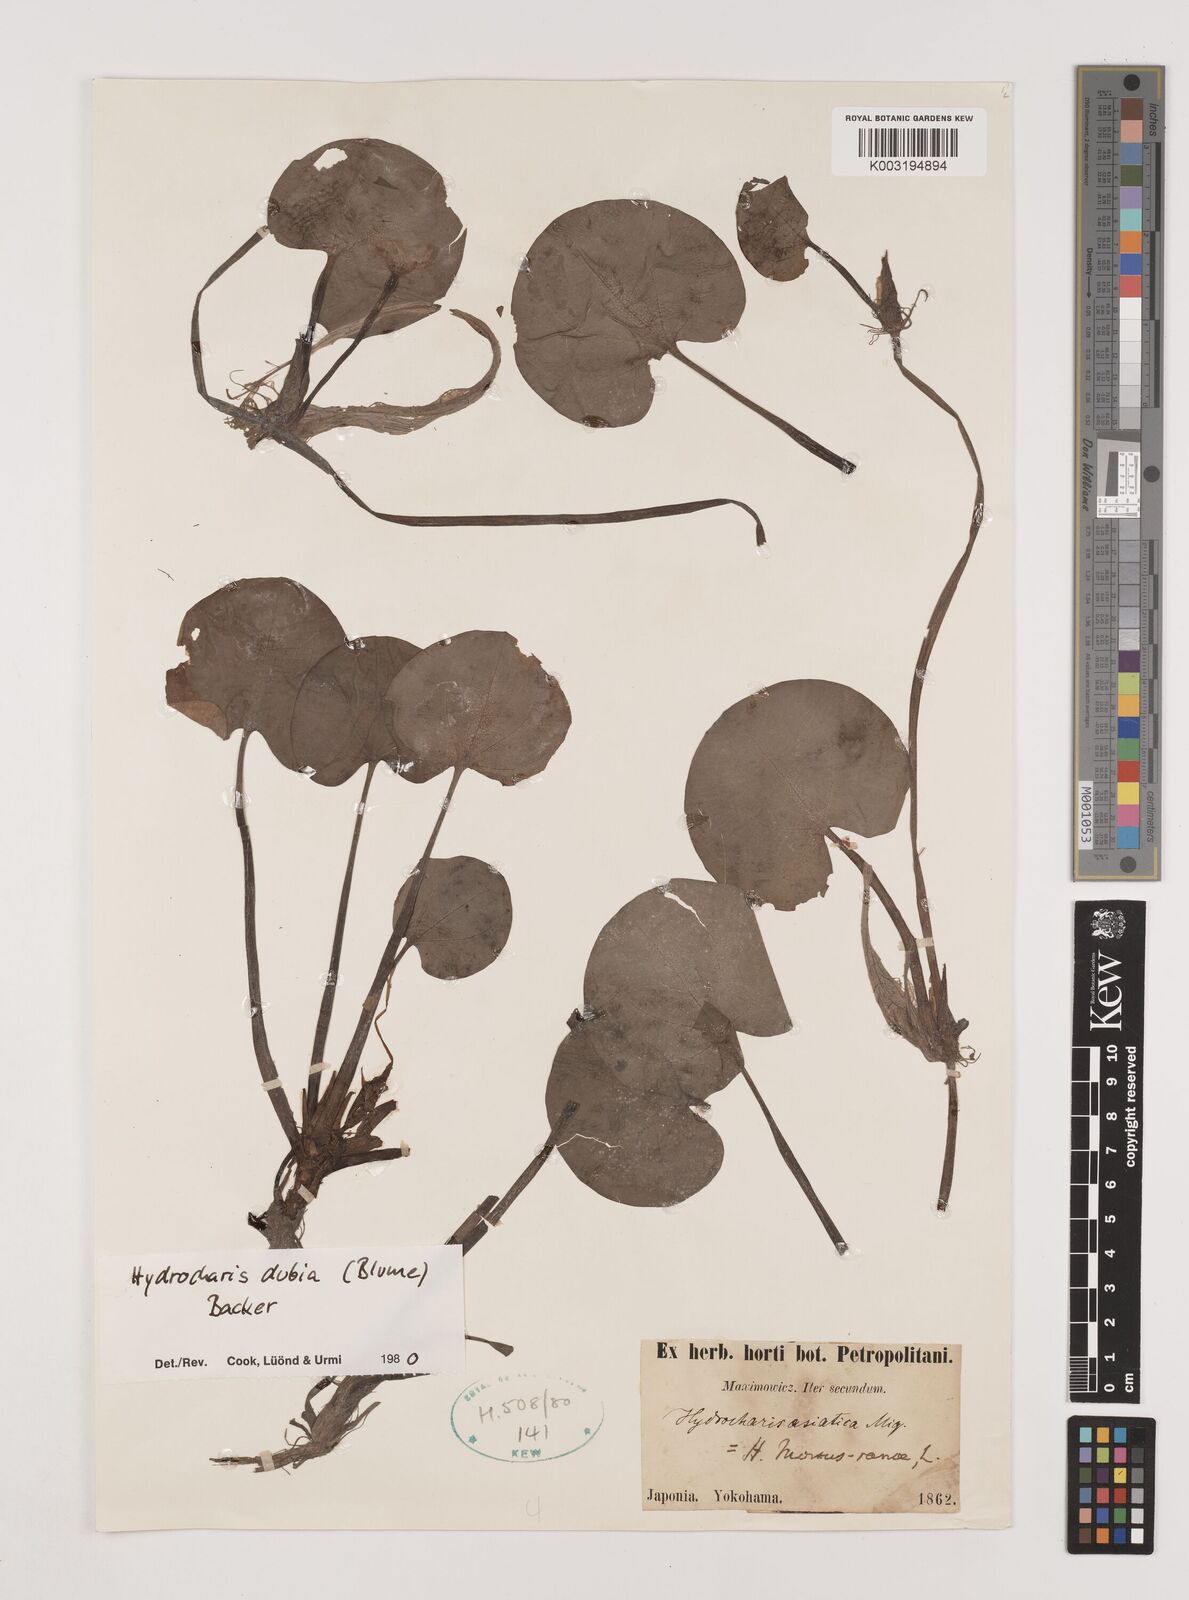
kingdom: Plantae
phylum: Tracheophyta
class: Liliopsida
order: Alismatales
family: Hydrocharitaceae
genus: Hydrocharis
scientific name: Hydrocharis dubia
